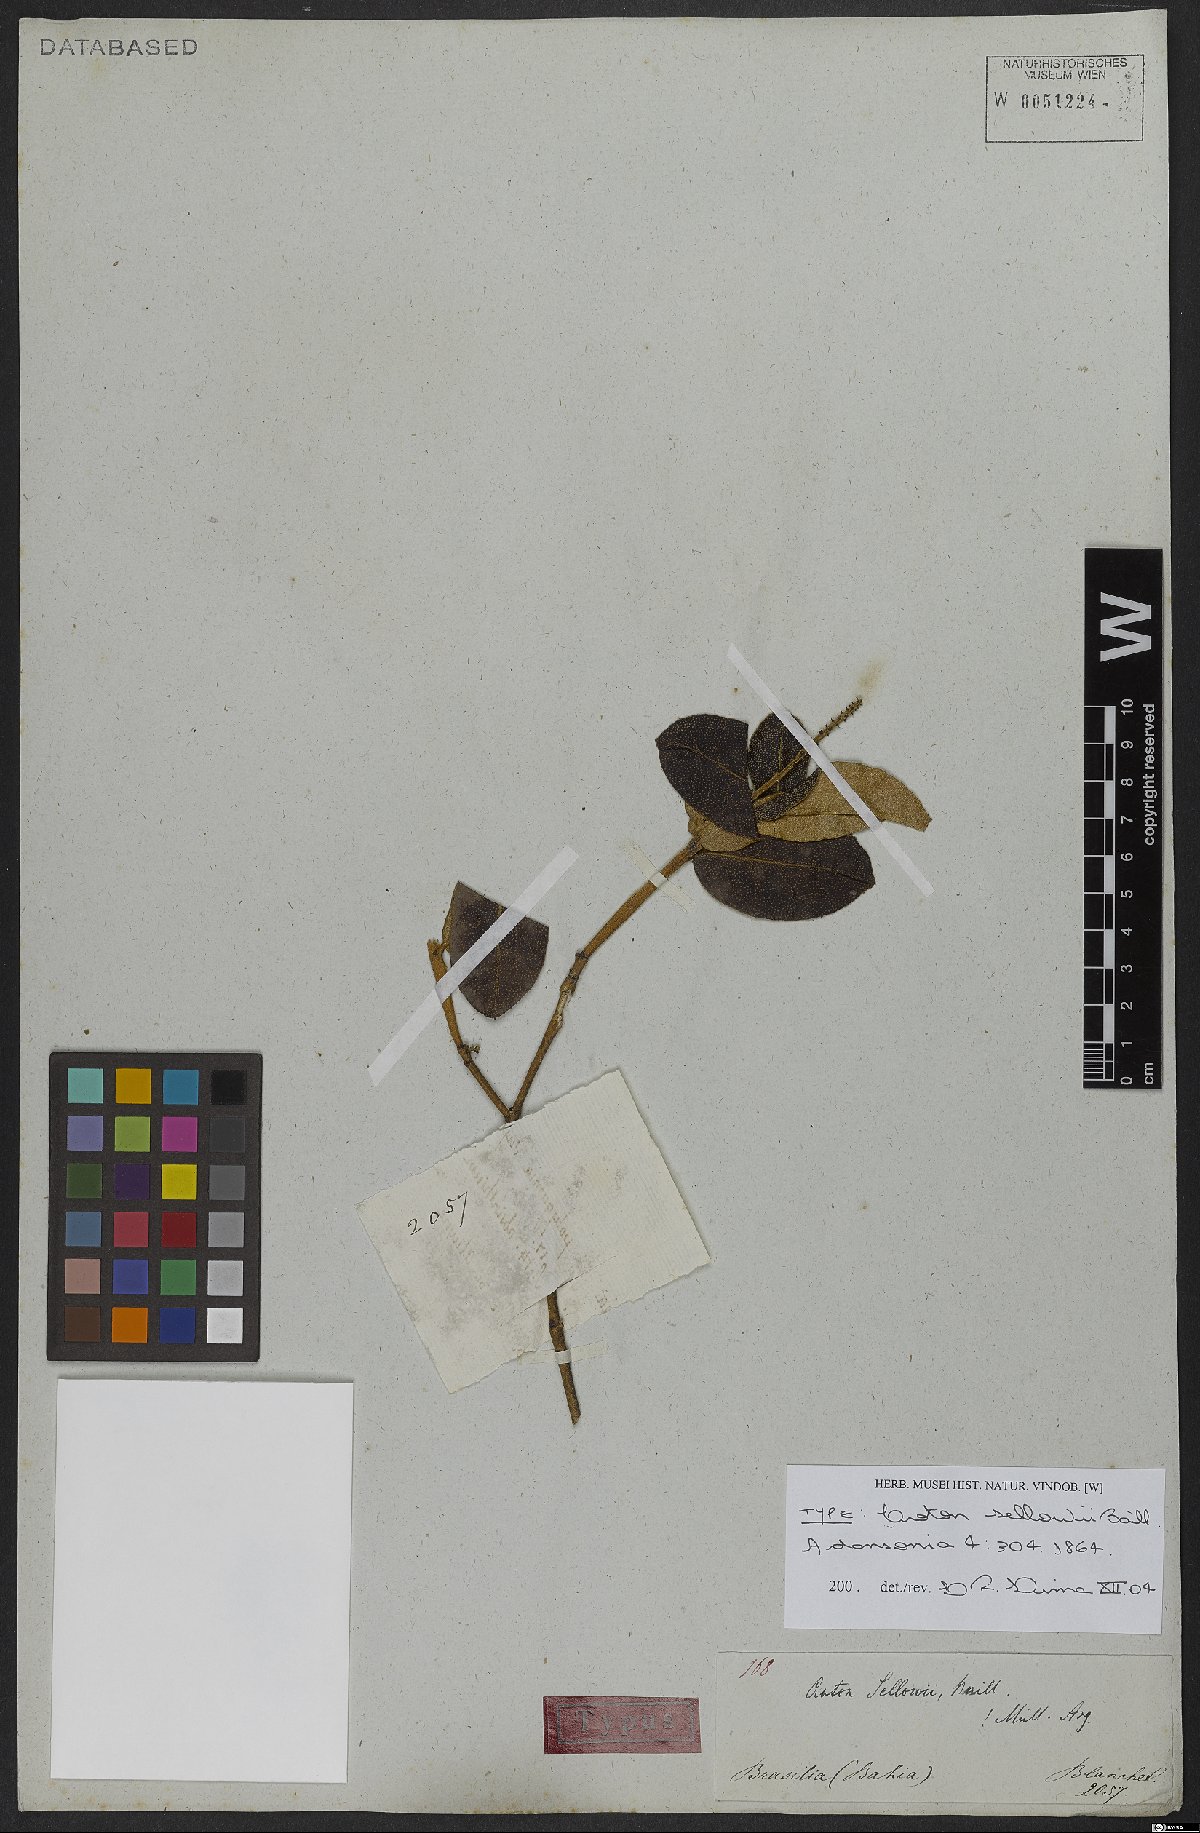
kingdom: Plantae
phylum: Tracheophyta
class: Magnoliopsida
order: Malpighiales
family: Euphorbiaceae
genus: Croton
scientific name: Croton sellowii
